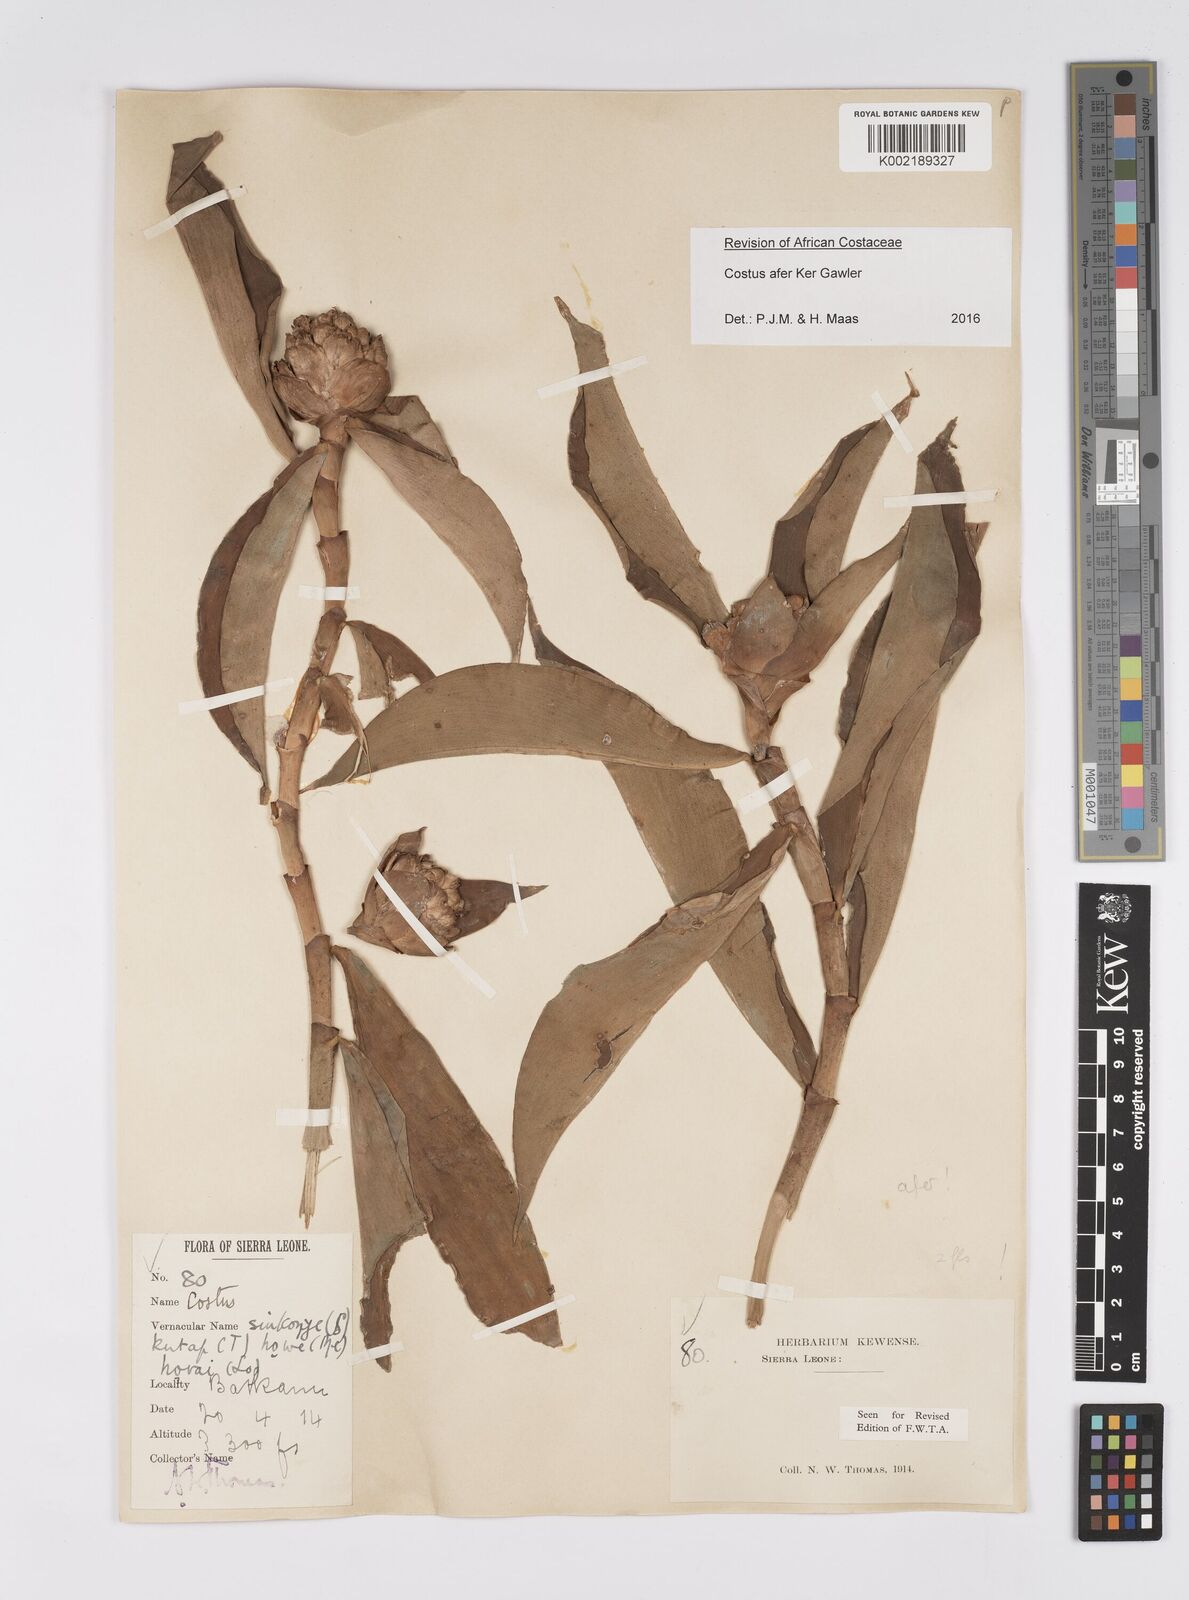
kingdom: Plantae
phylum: Tracheophyta
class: Liliopsida
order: Zingiberales
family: Costaceae
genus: Costus
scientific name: Costus afer
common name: Spiral-ginger
